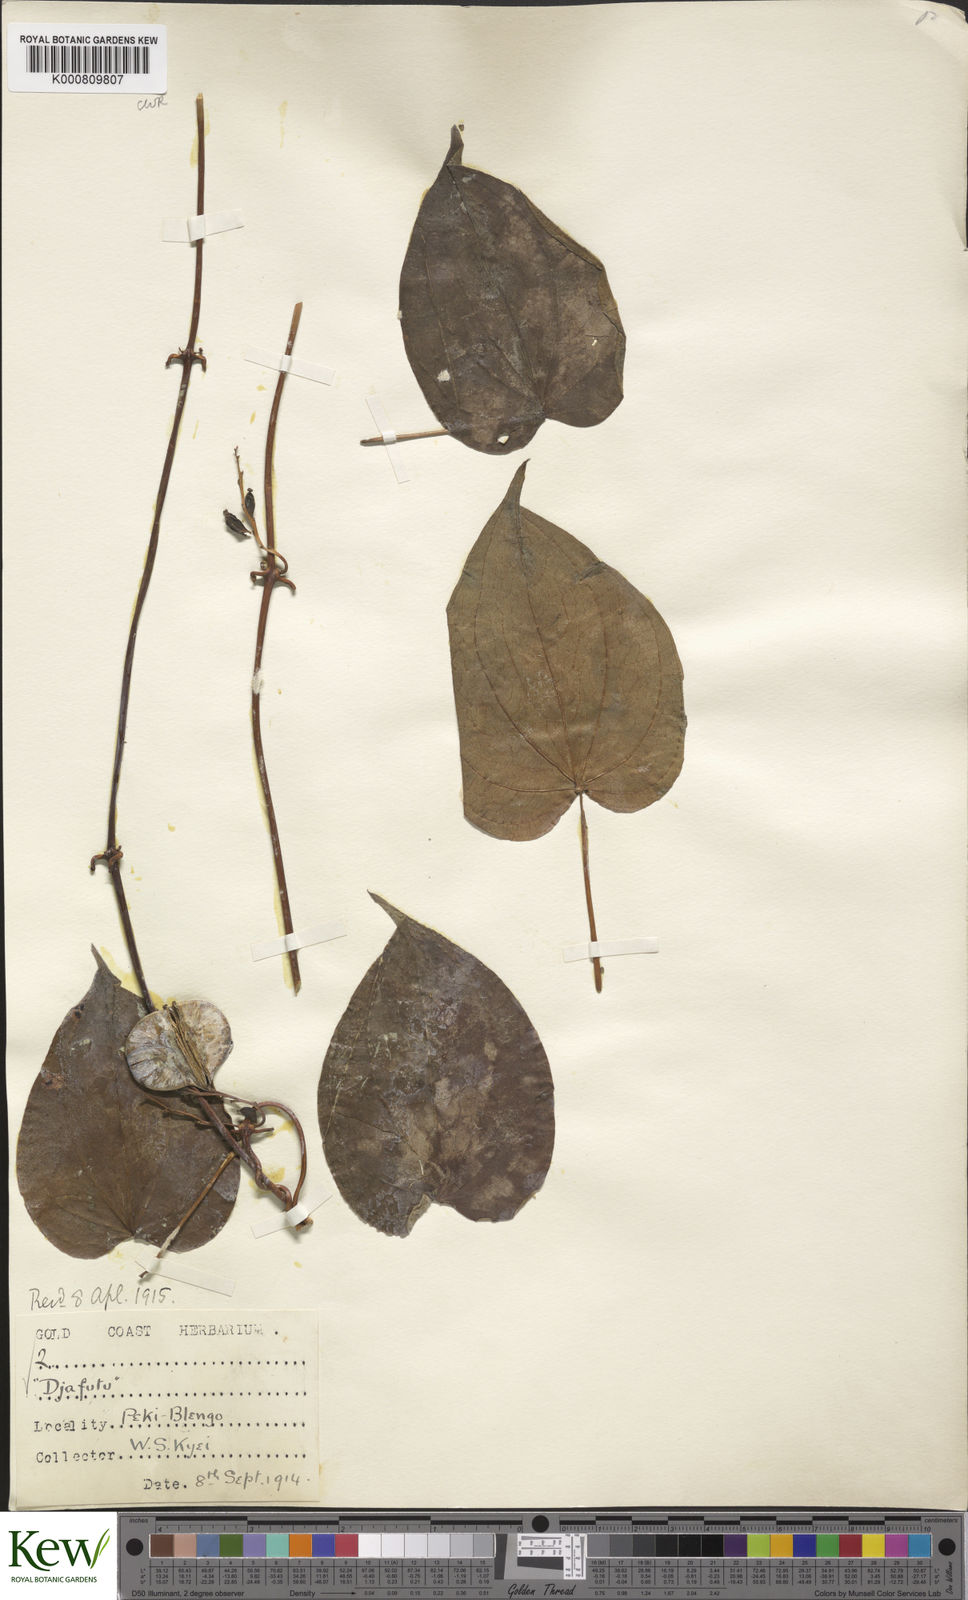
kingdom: Plantae
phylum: Tracheophyta
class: Liliopsida
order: Dioscoreales
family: Dioscoreaceae
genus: Dioscorea
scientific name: Dioscorea cayenensis
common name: Attoto yam
